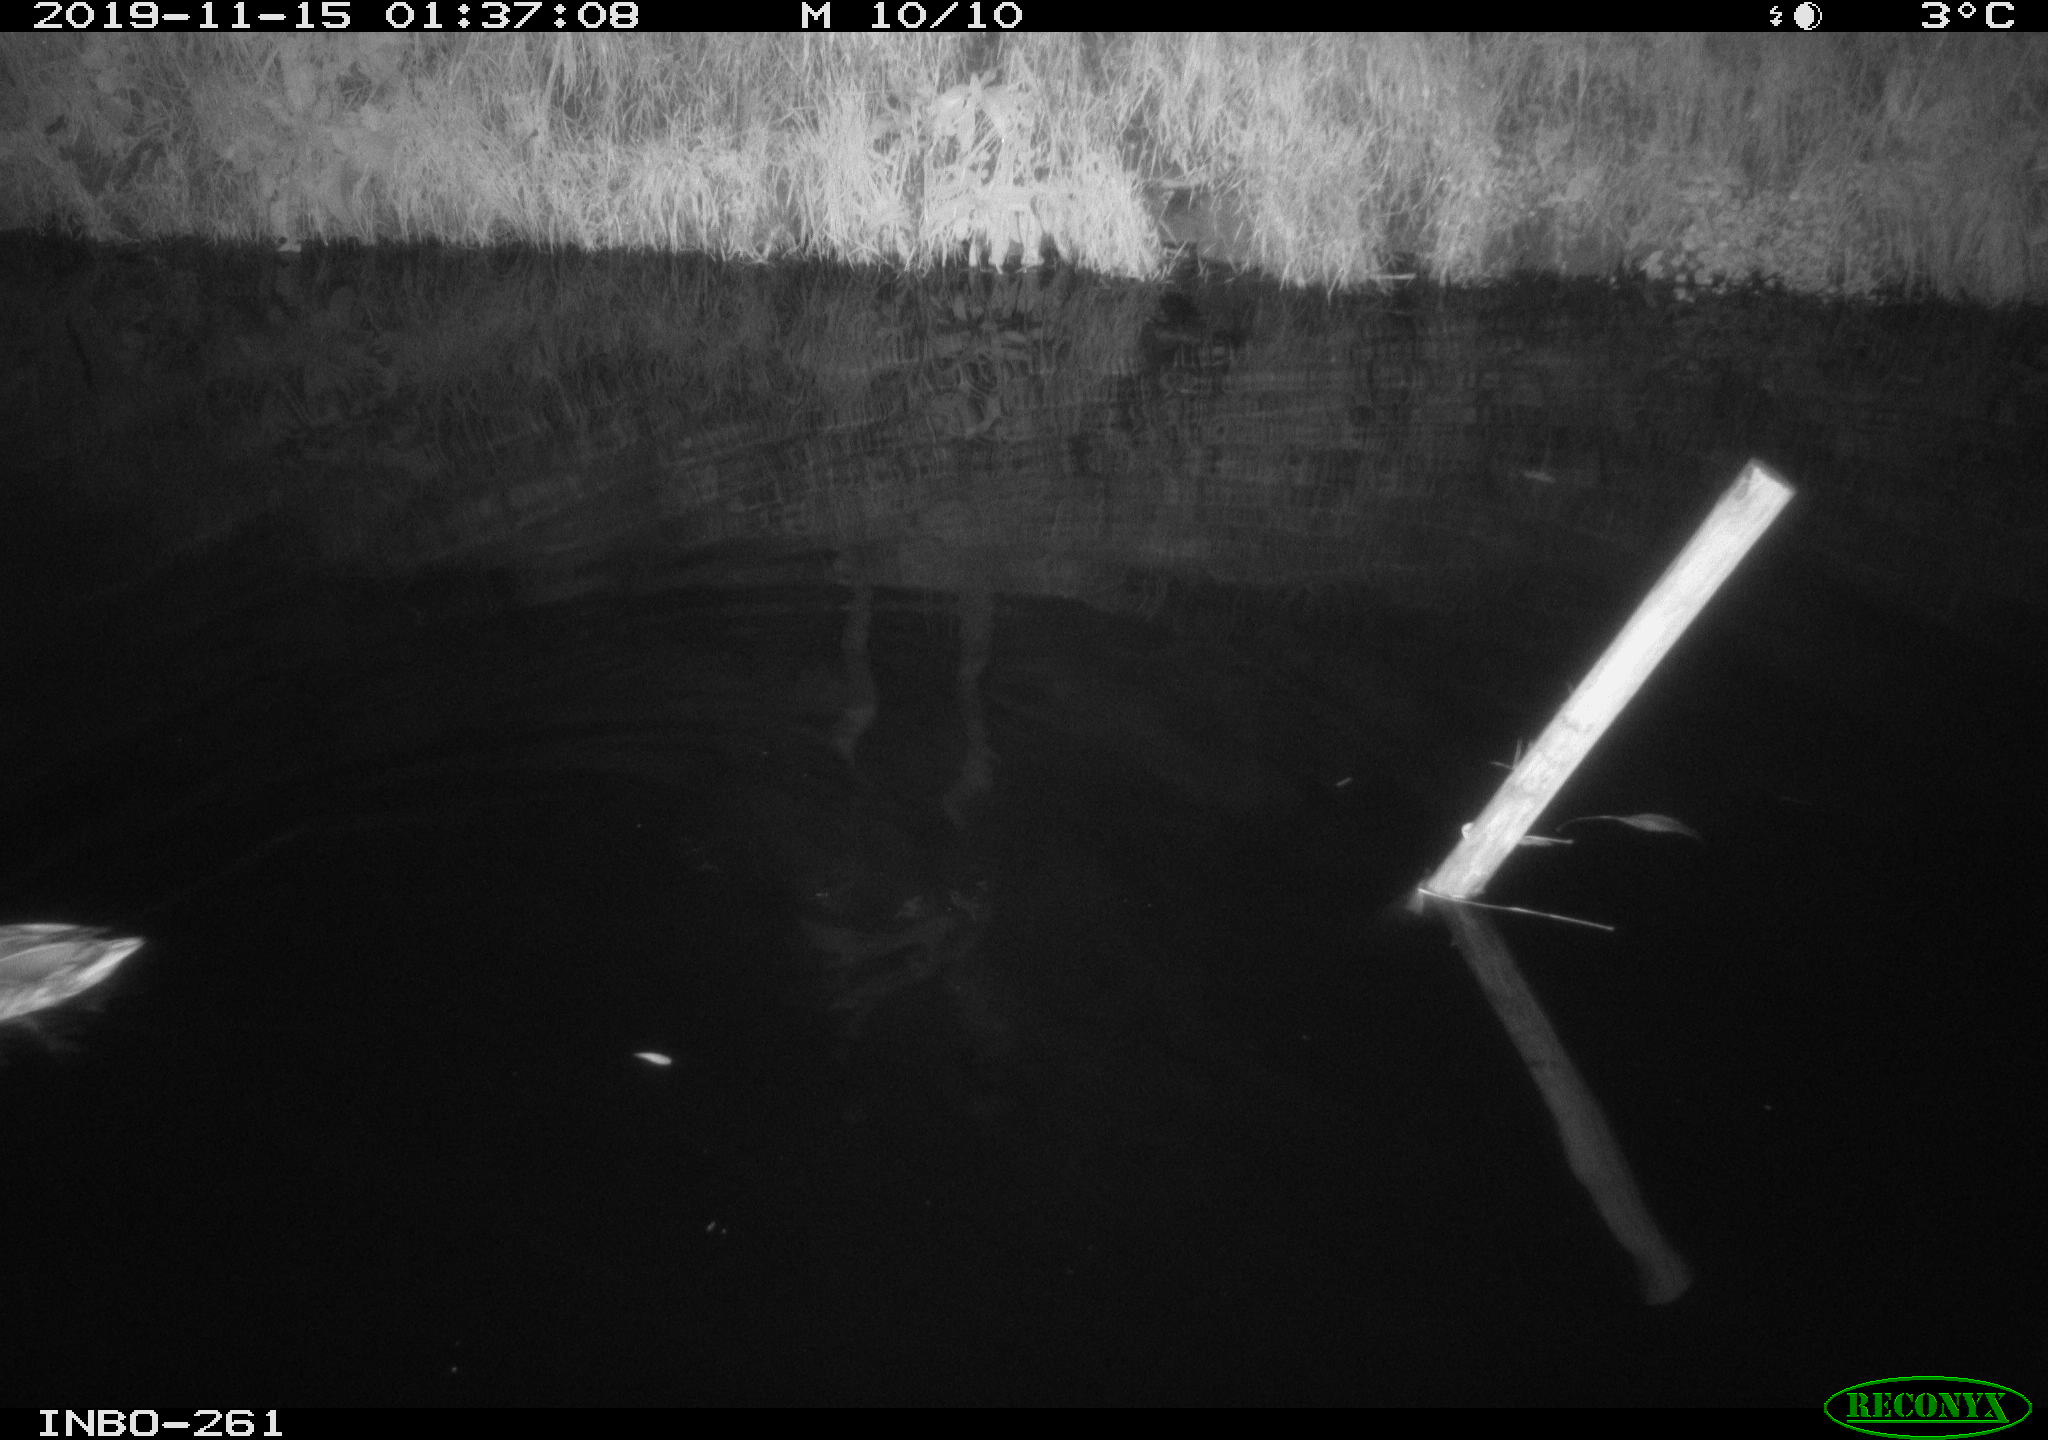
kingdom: Animalia
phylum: Chordata
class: Aves
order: Anseriformes
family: Anatidae
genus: Anas
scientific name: Anas platyrhynchos
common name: Mallard
